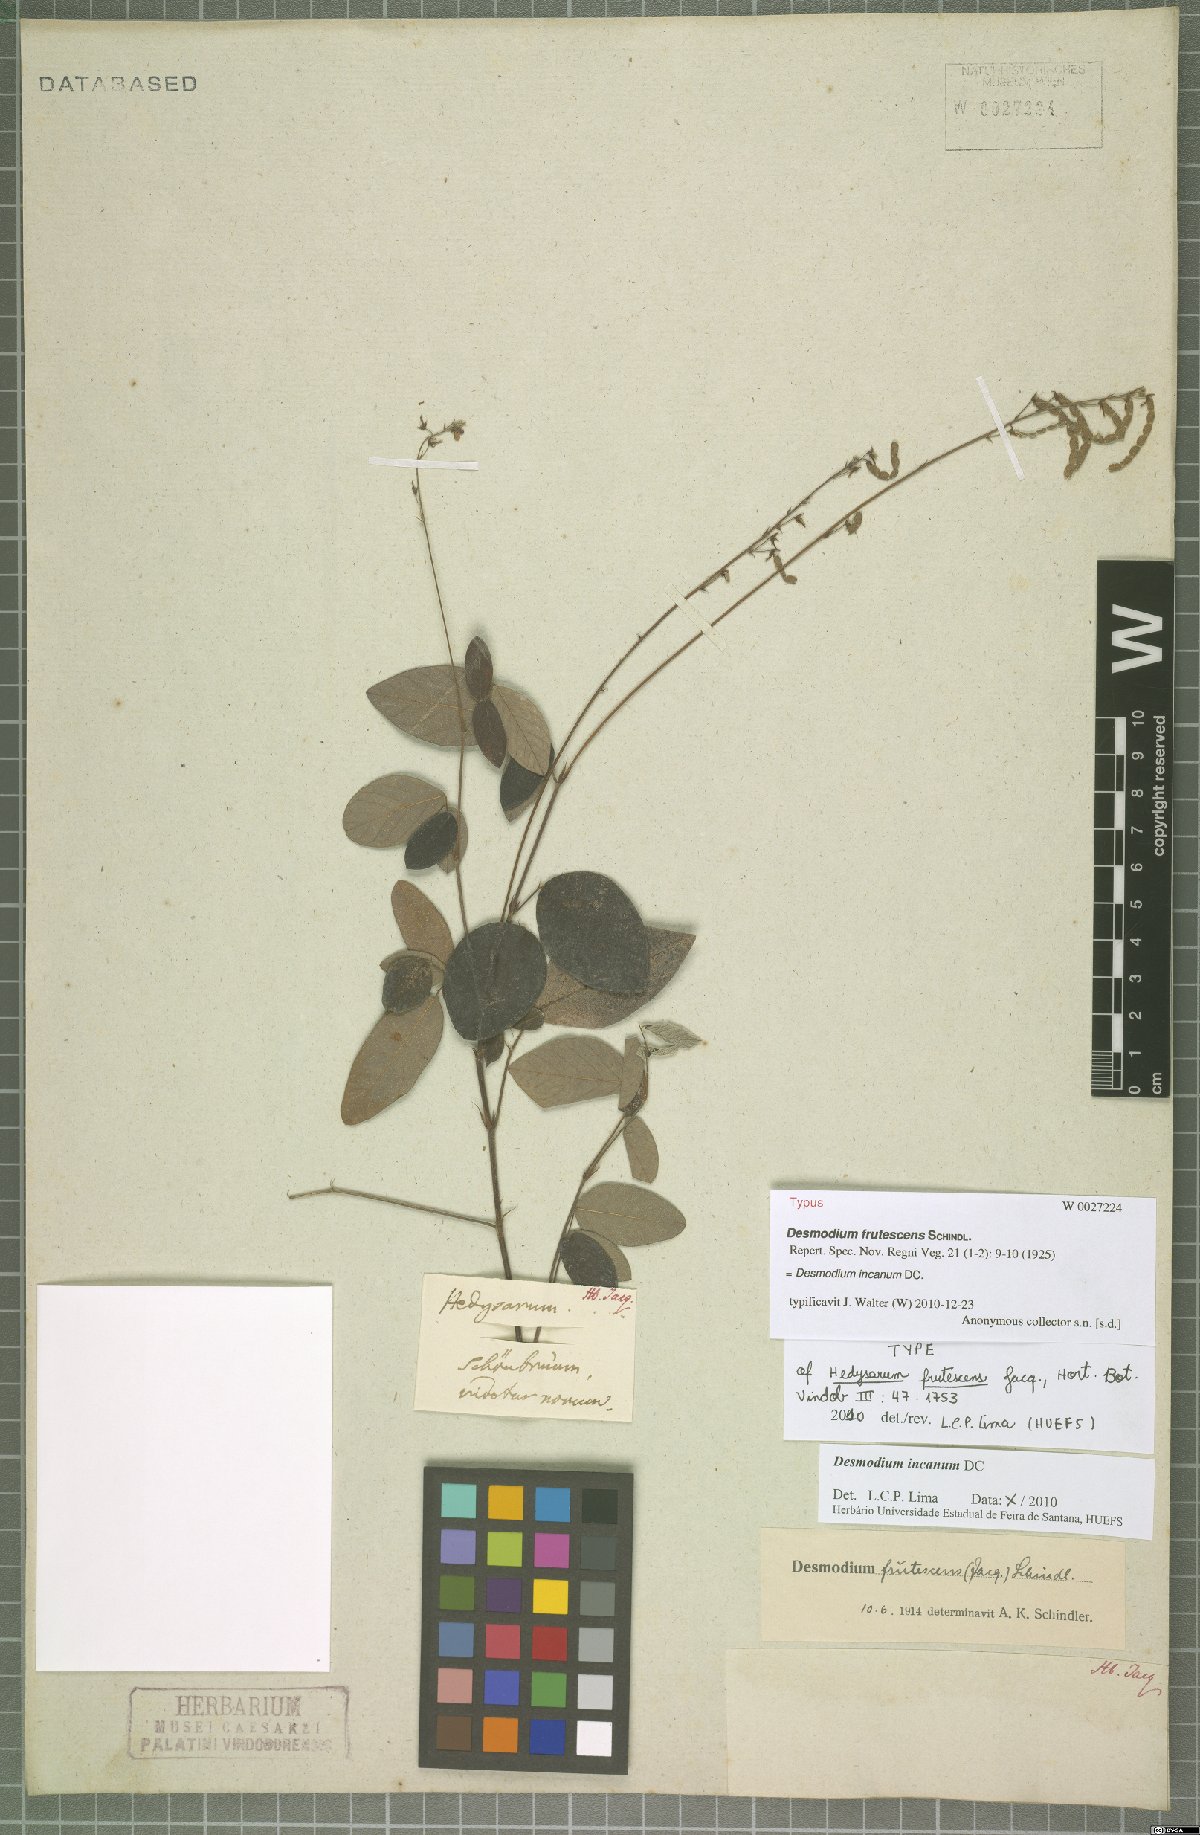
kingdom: Plantae
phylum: Tracheophyta
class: Magnoliopsida
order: Fabales
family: Fabaceae
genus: Desmodium
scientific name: Desmodium incanum
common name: Tickclover
